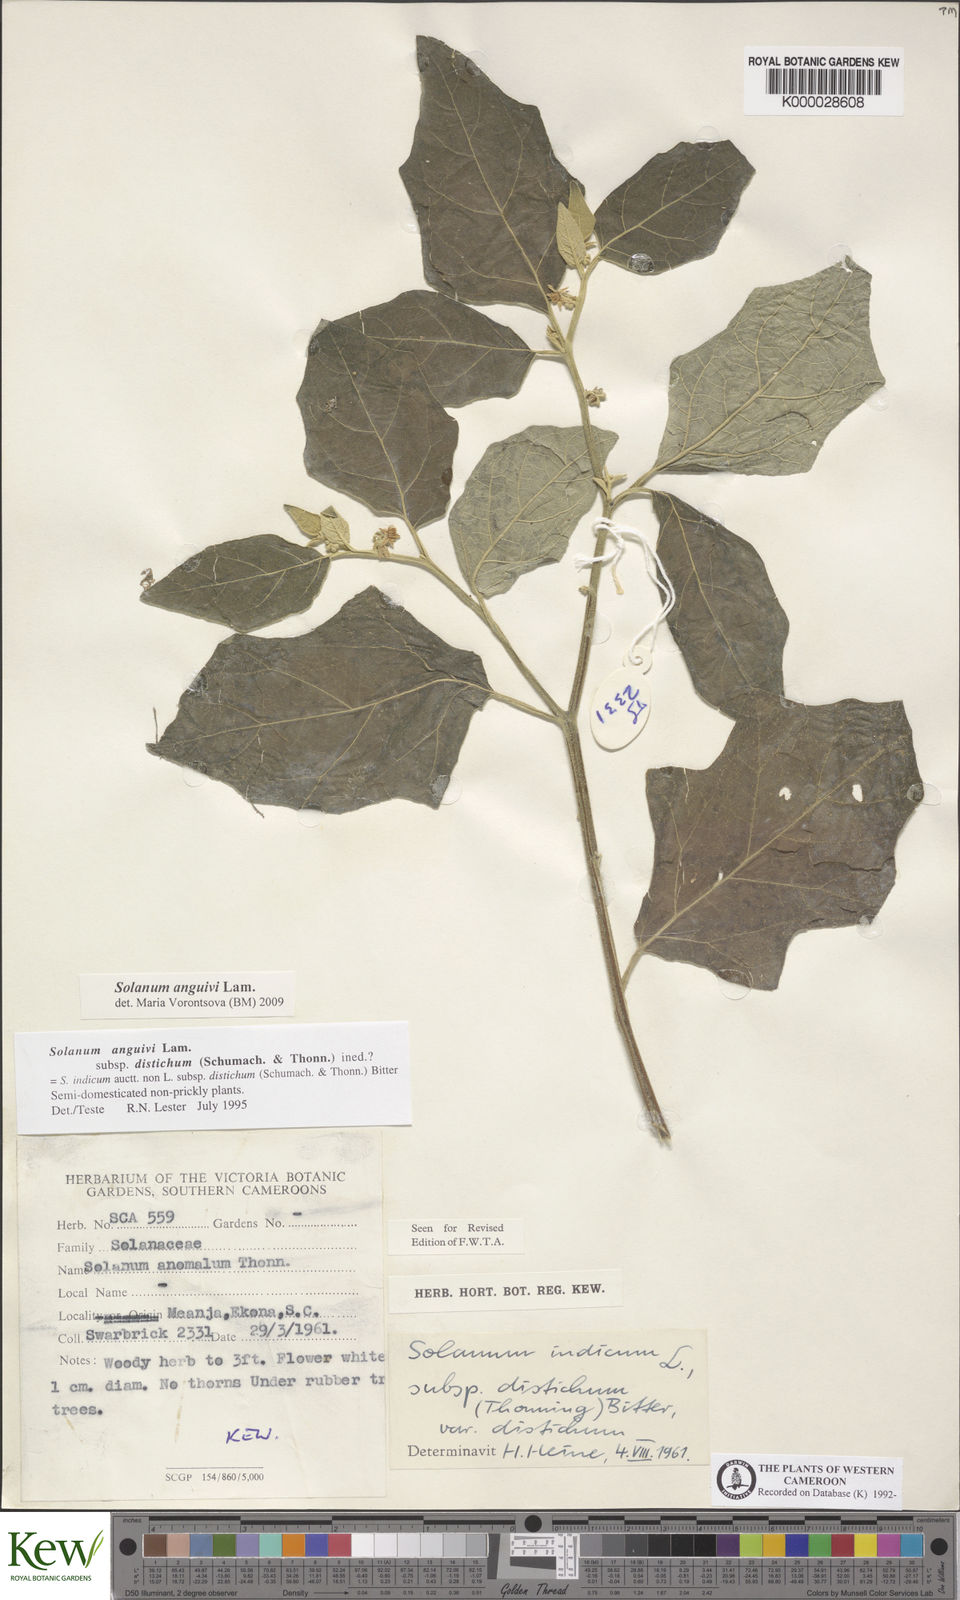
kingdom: Plantae
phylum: Tracheophyta
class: Magnoliopsida
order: Solanales
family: Solanaceae
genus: Solanum
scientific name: Solanum anguivi
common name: Forest bitterberry
